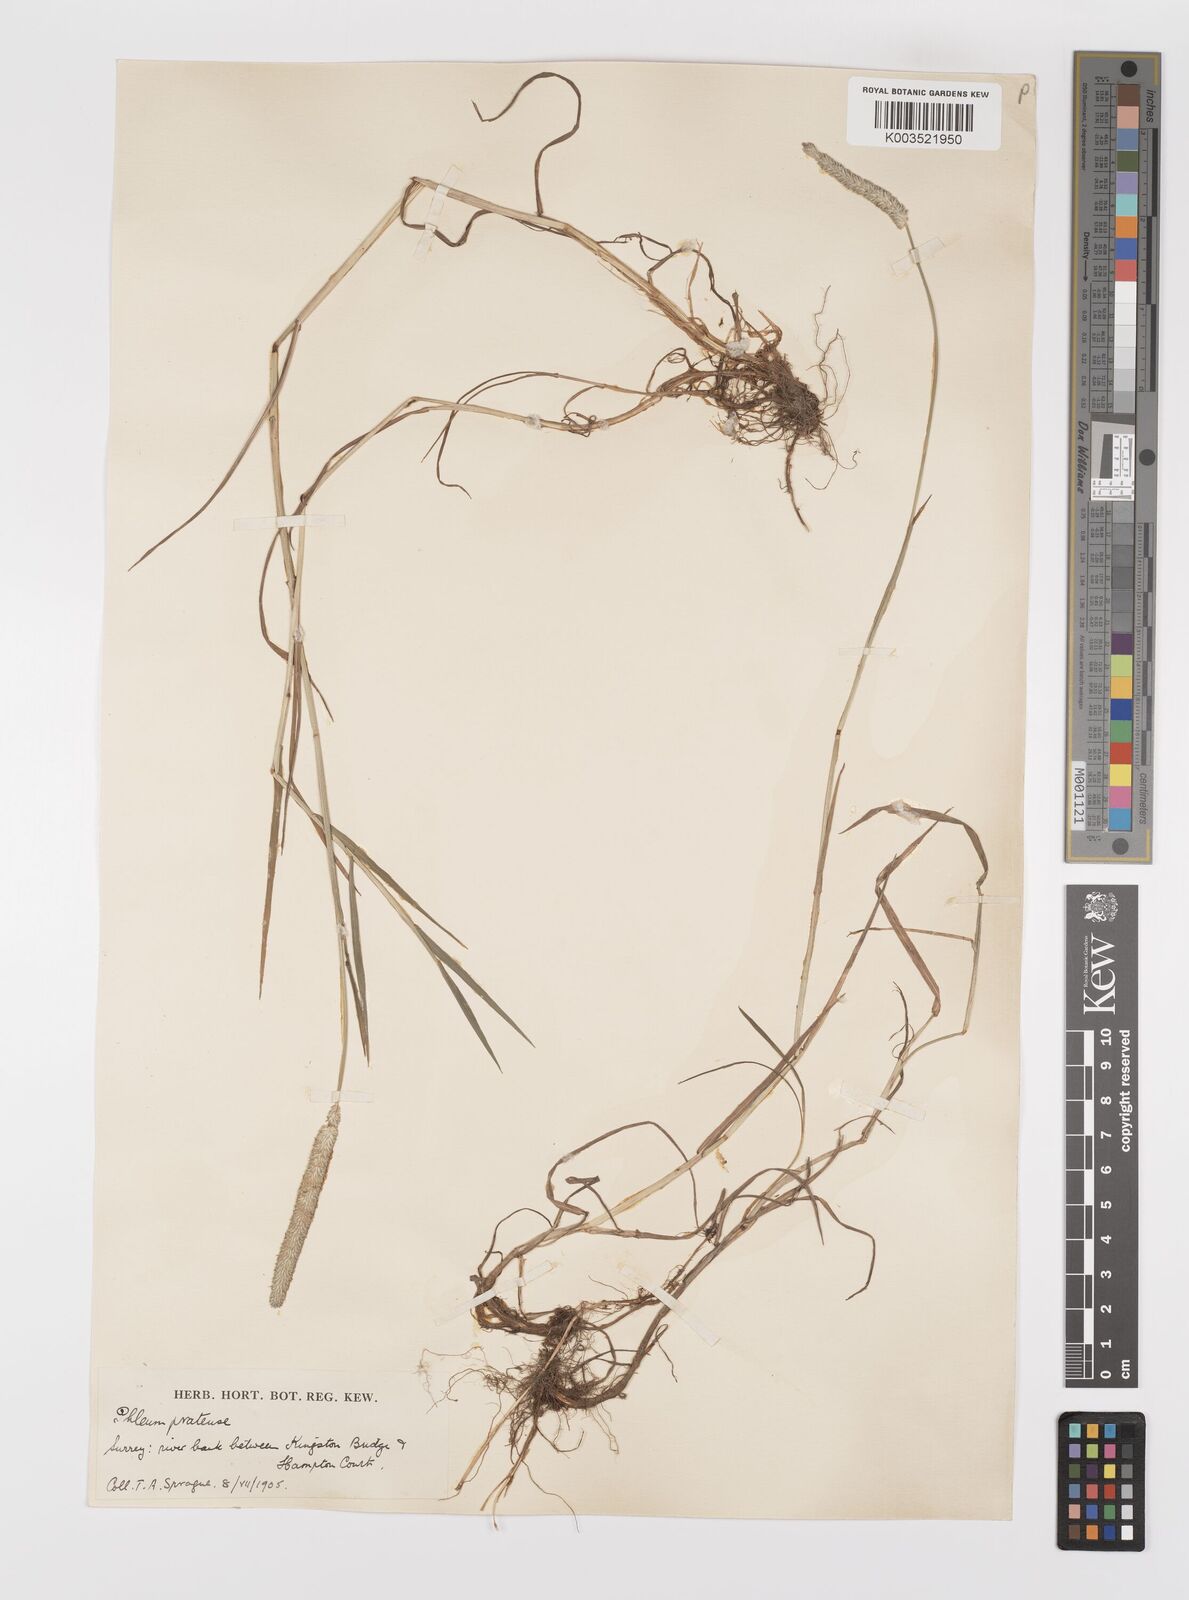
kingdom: Plantae
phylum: Tracheophyta
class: Liliopsida
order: Poales
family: Poaceae
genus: Phleum
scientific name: Phleum bertolonii
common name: Smaller cat's-tail
